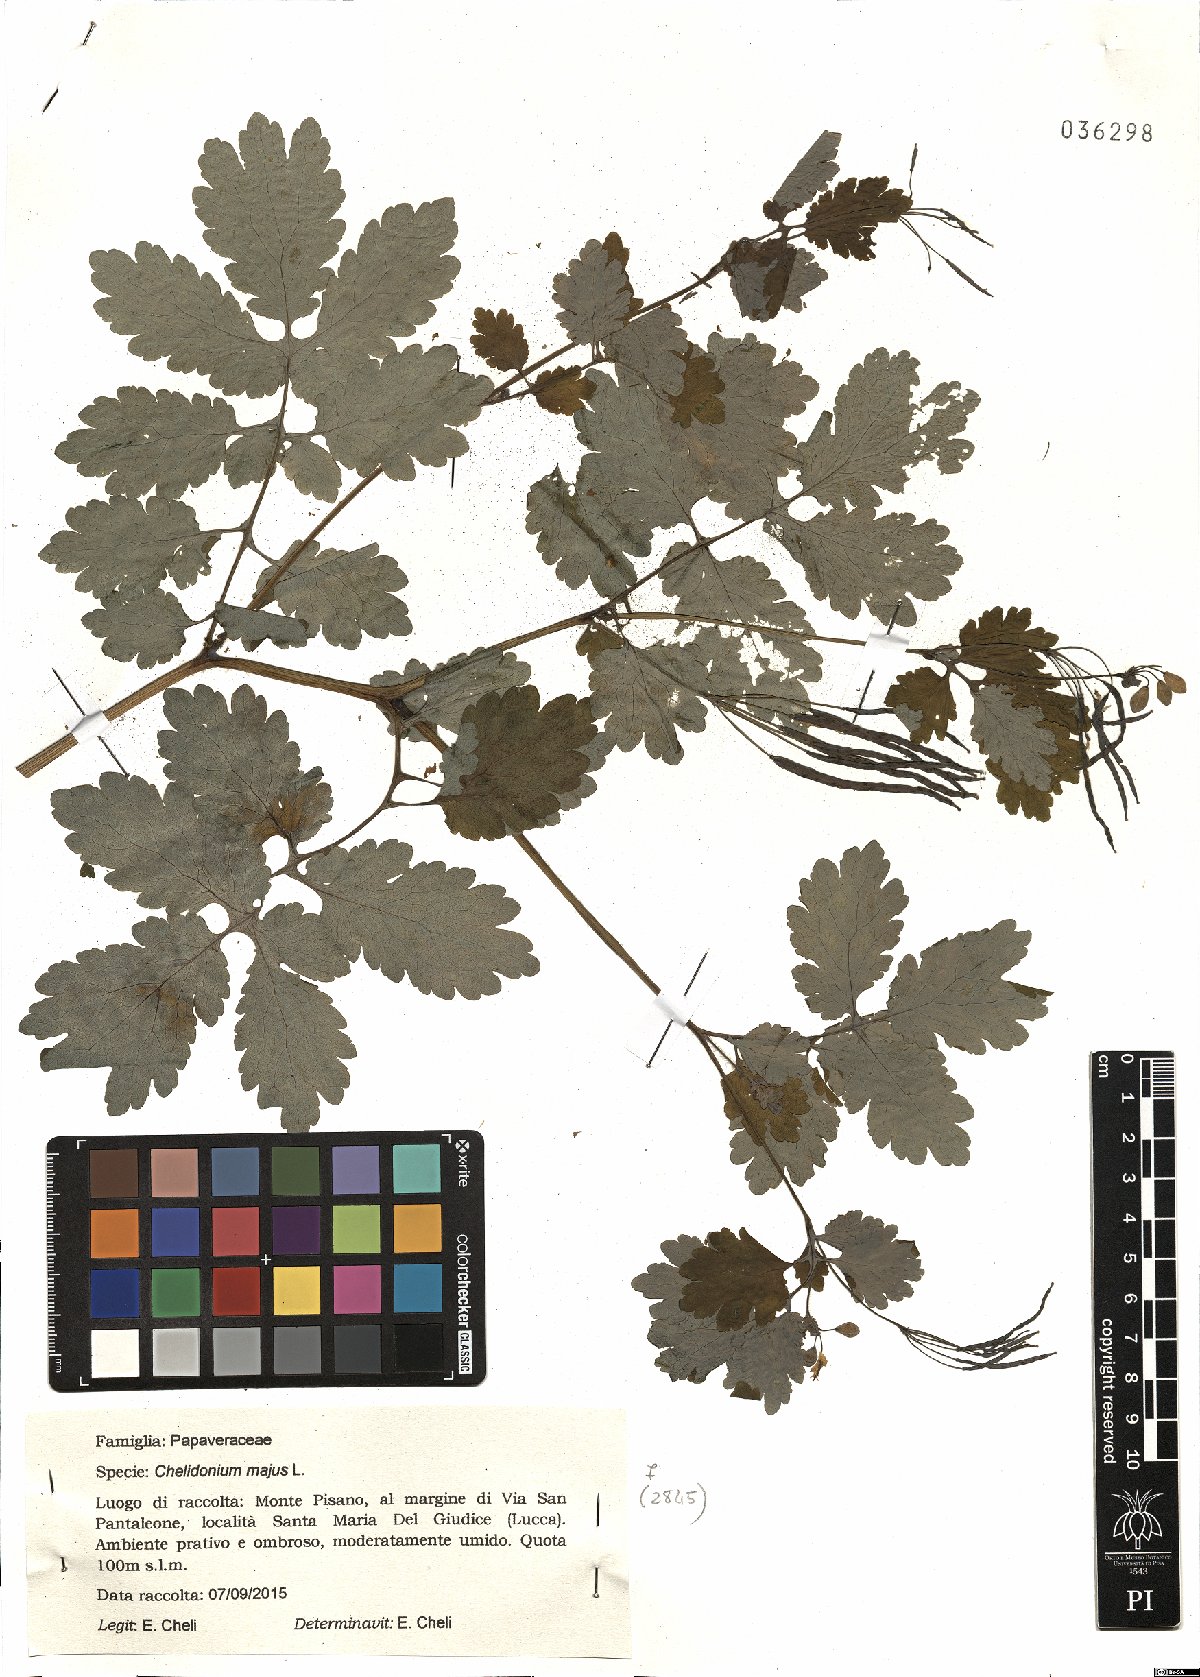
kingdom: Plantae
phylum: Tracheophyta
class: Magnoliopsida
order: Ranunculales
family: Papaveraceae
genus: Chelidonium
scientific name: Chelidonium majus
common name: Greater celandine
